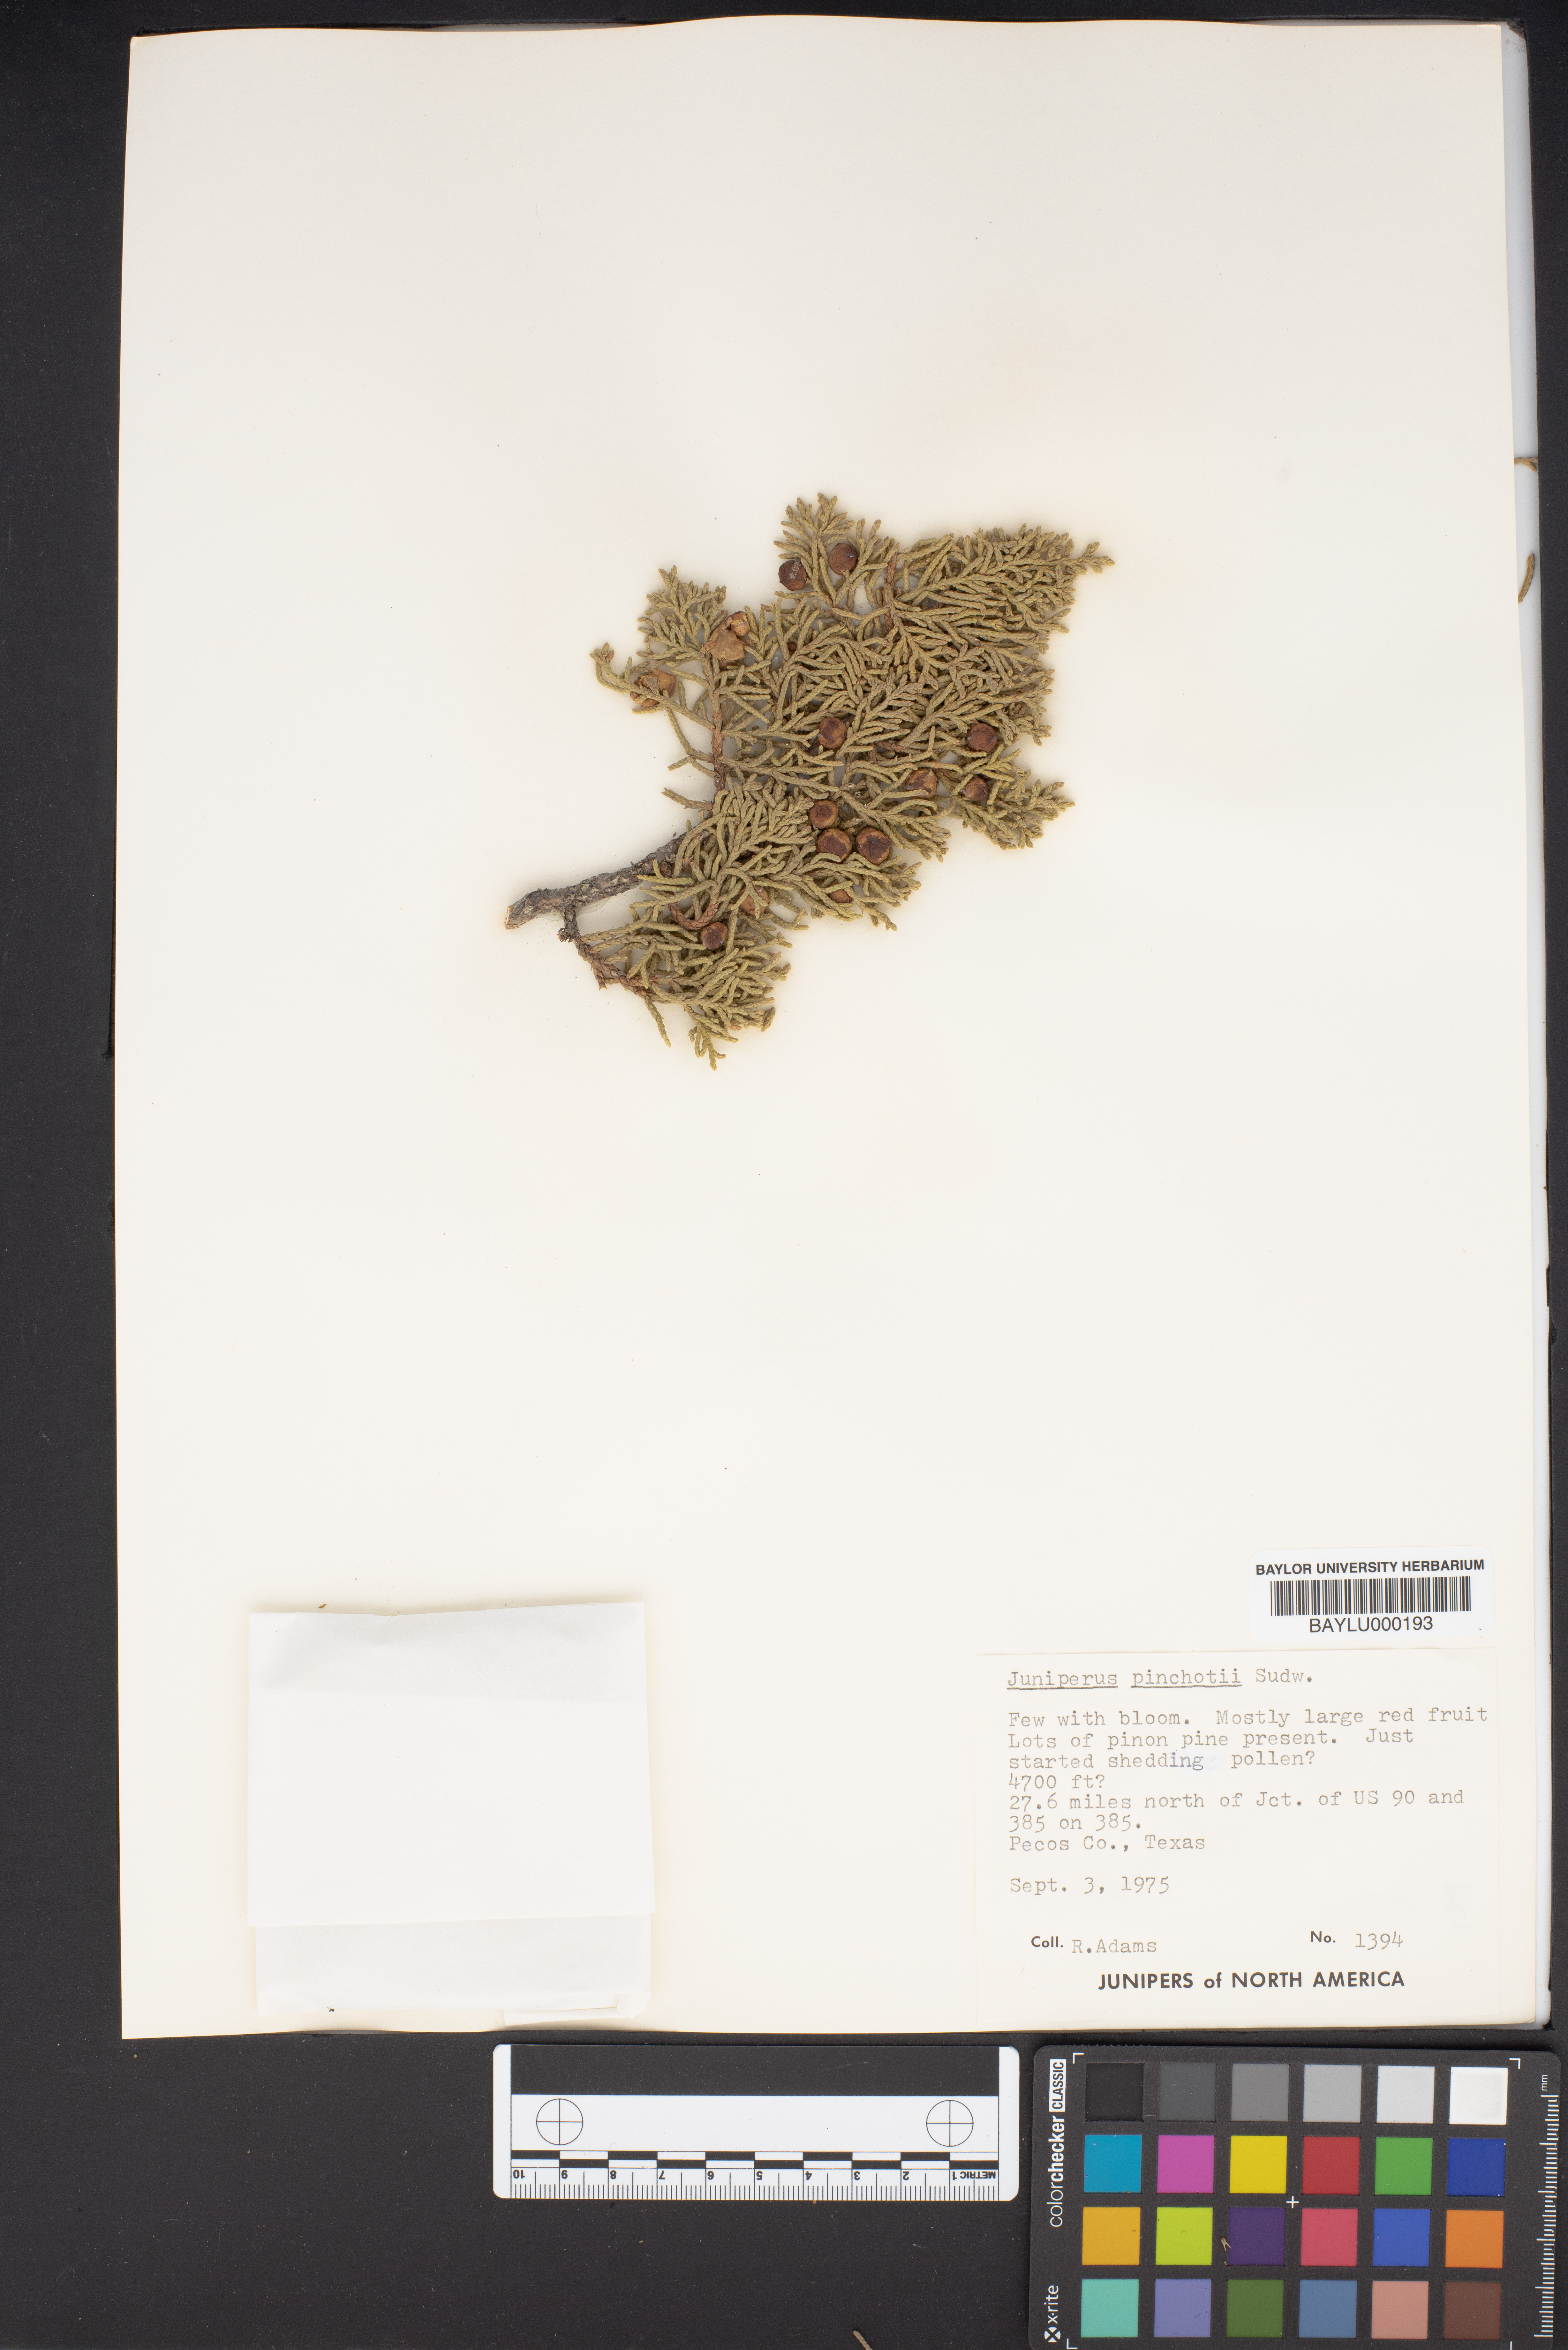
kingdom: Plantae
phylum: Tracheophyta
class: Pinopsida
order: Pinales
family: Cupressaceae
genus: Juniperus
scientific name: Juniperus pinchotii
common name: Pinchot juniper
